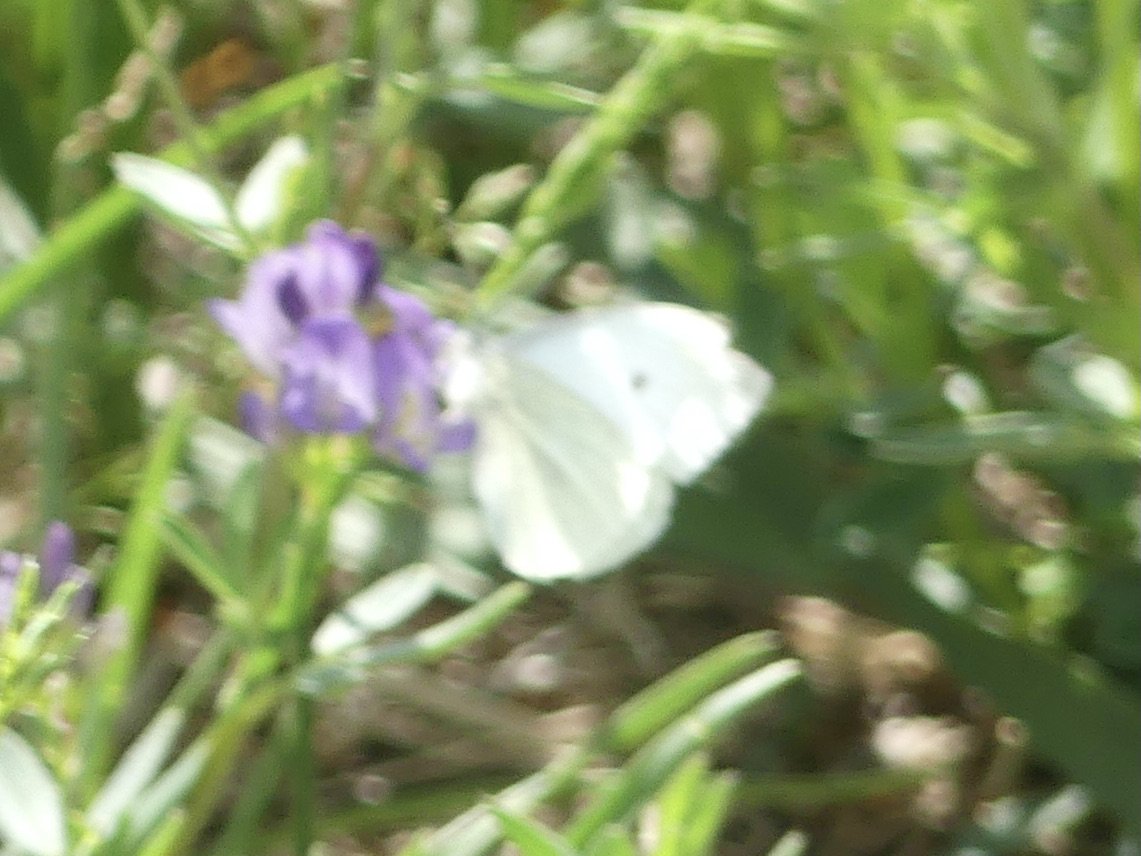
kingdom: Animalia
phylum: Arthropoda
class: Insecta
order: Lepidoptera
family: Pieridae
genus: Pieris
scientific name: Pieris rapae
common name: Cabbage White
